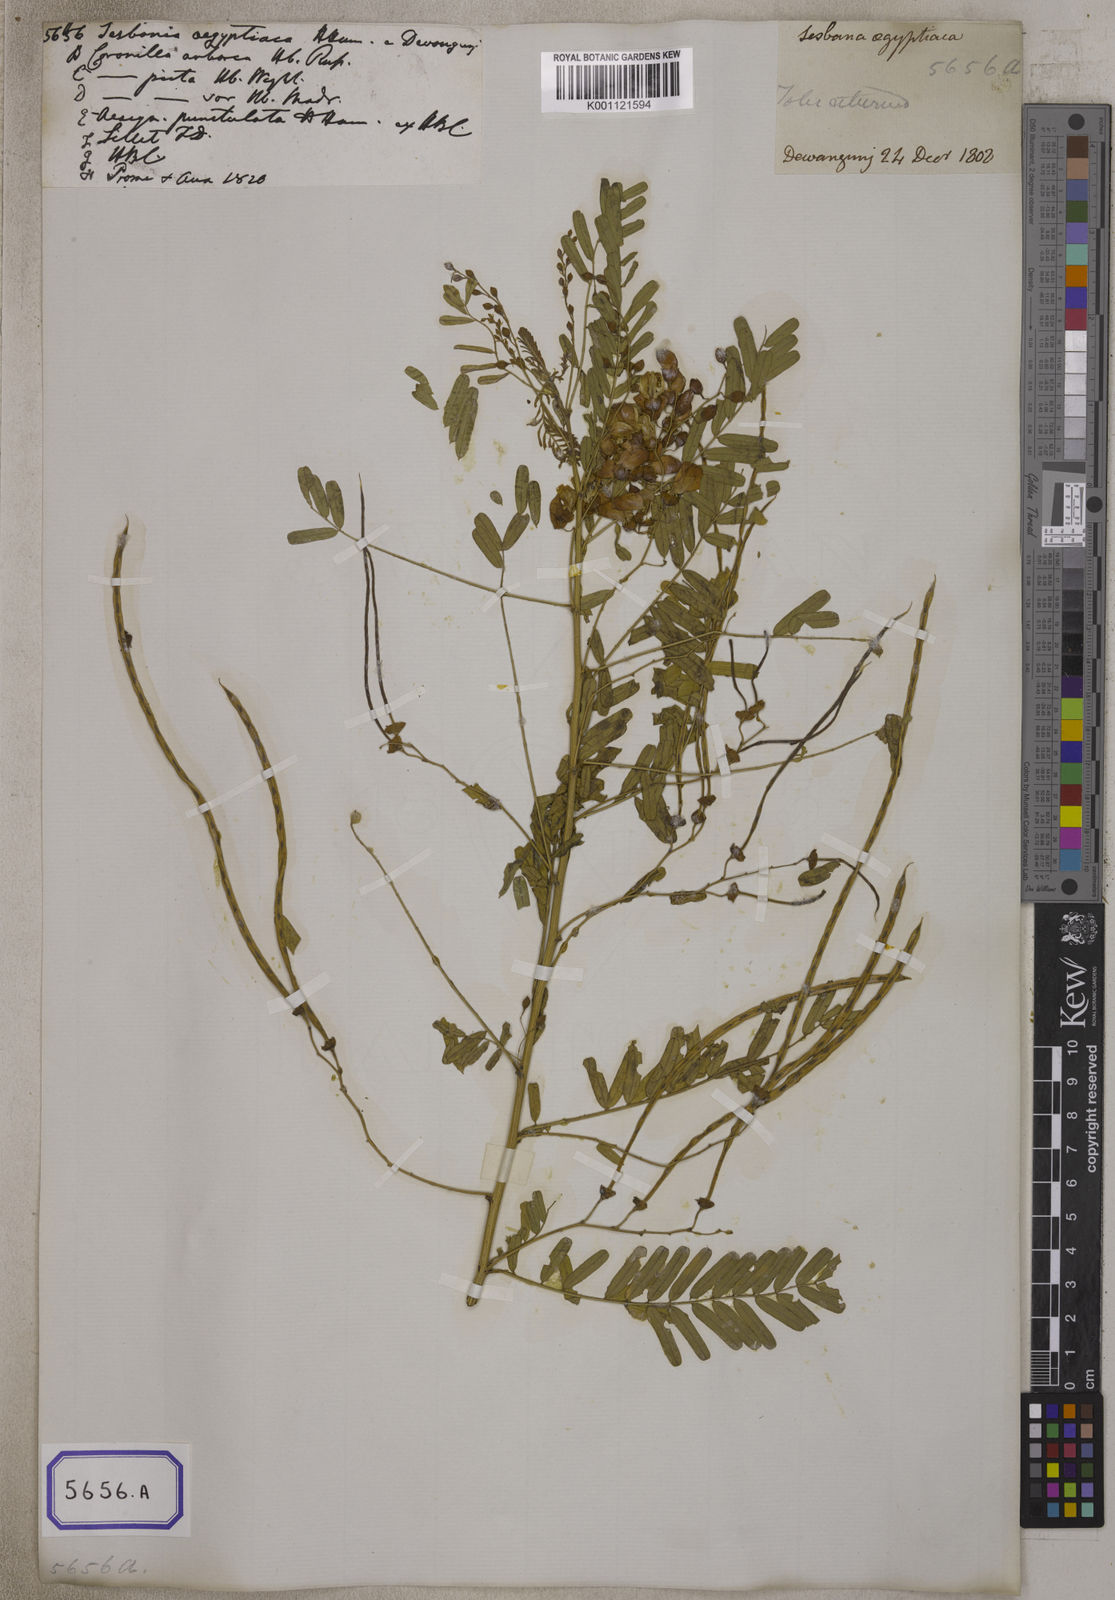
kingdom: Plantae
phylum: Tracheophyta
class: Magnoliopsida
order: Fabales
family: Fabaceae
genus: Sesbania
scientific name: Sesbania
